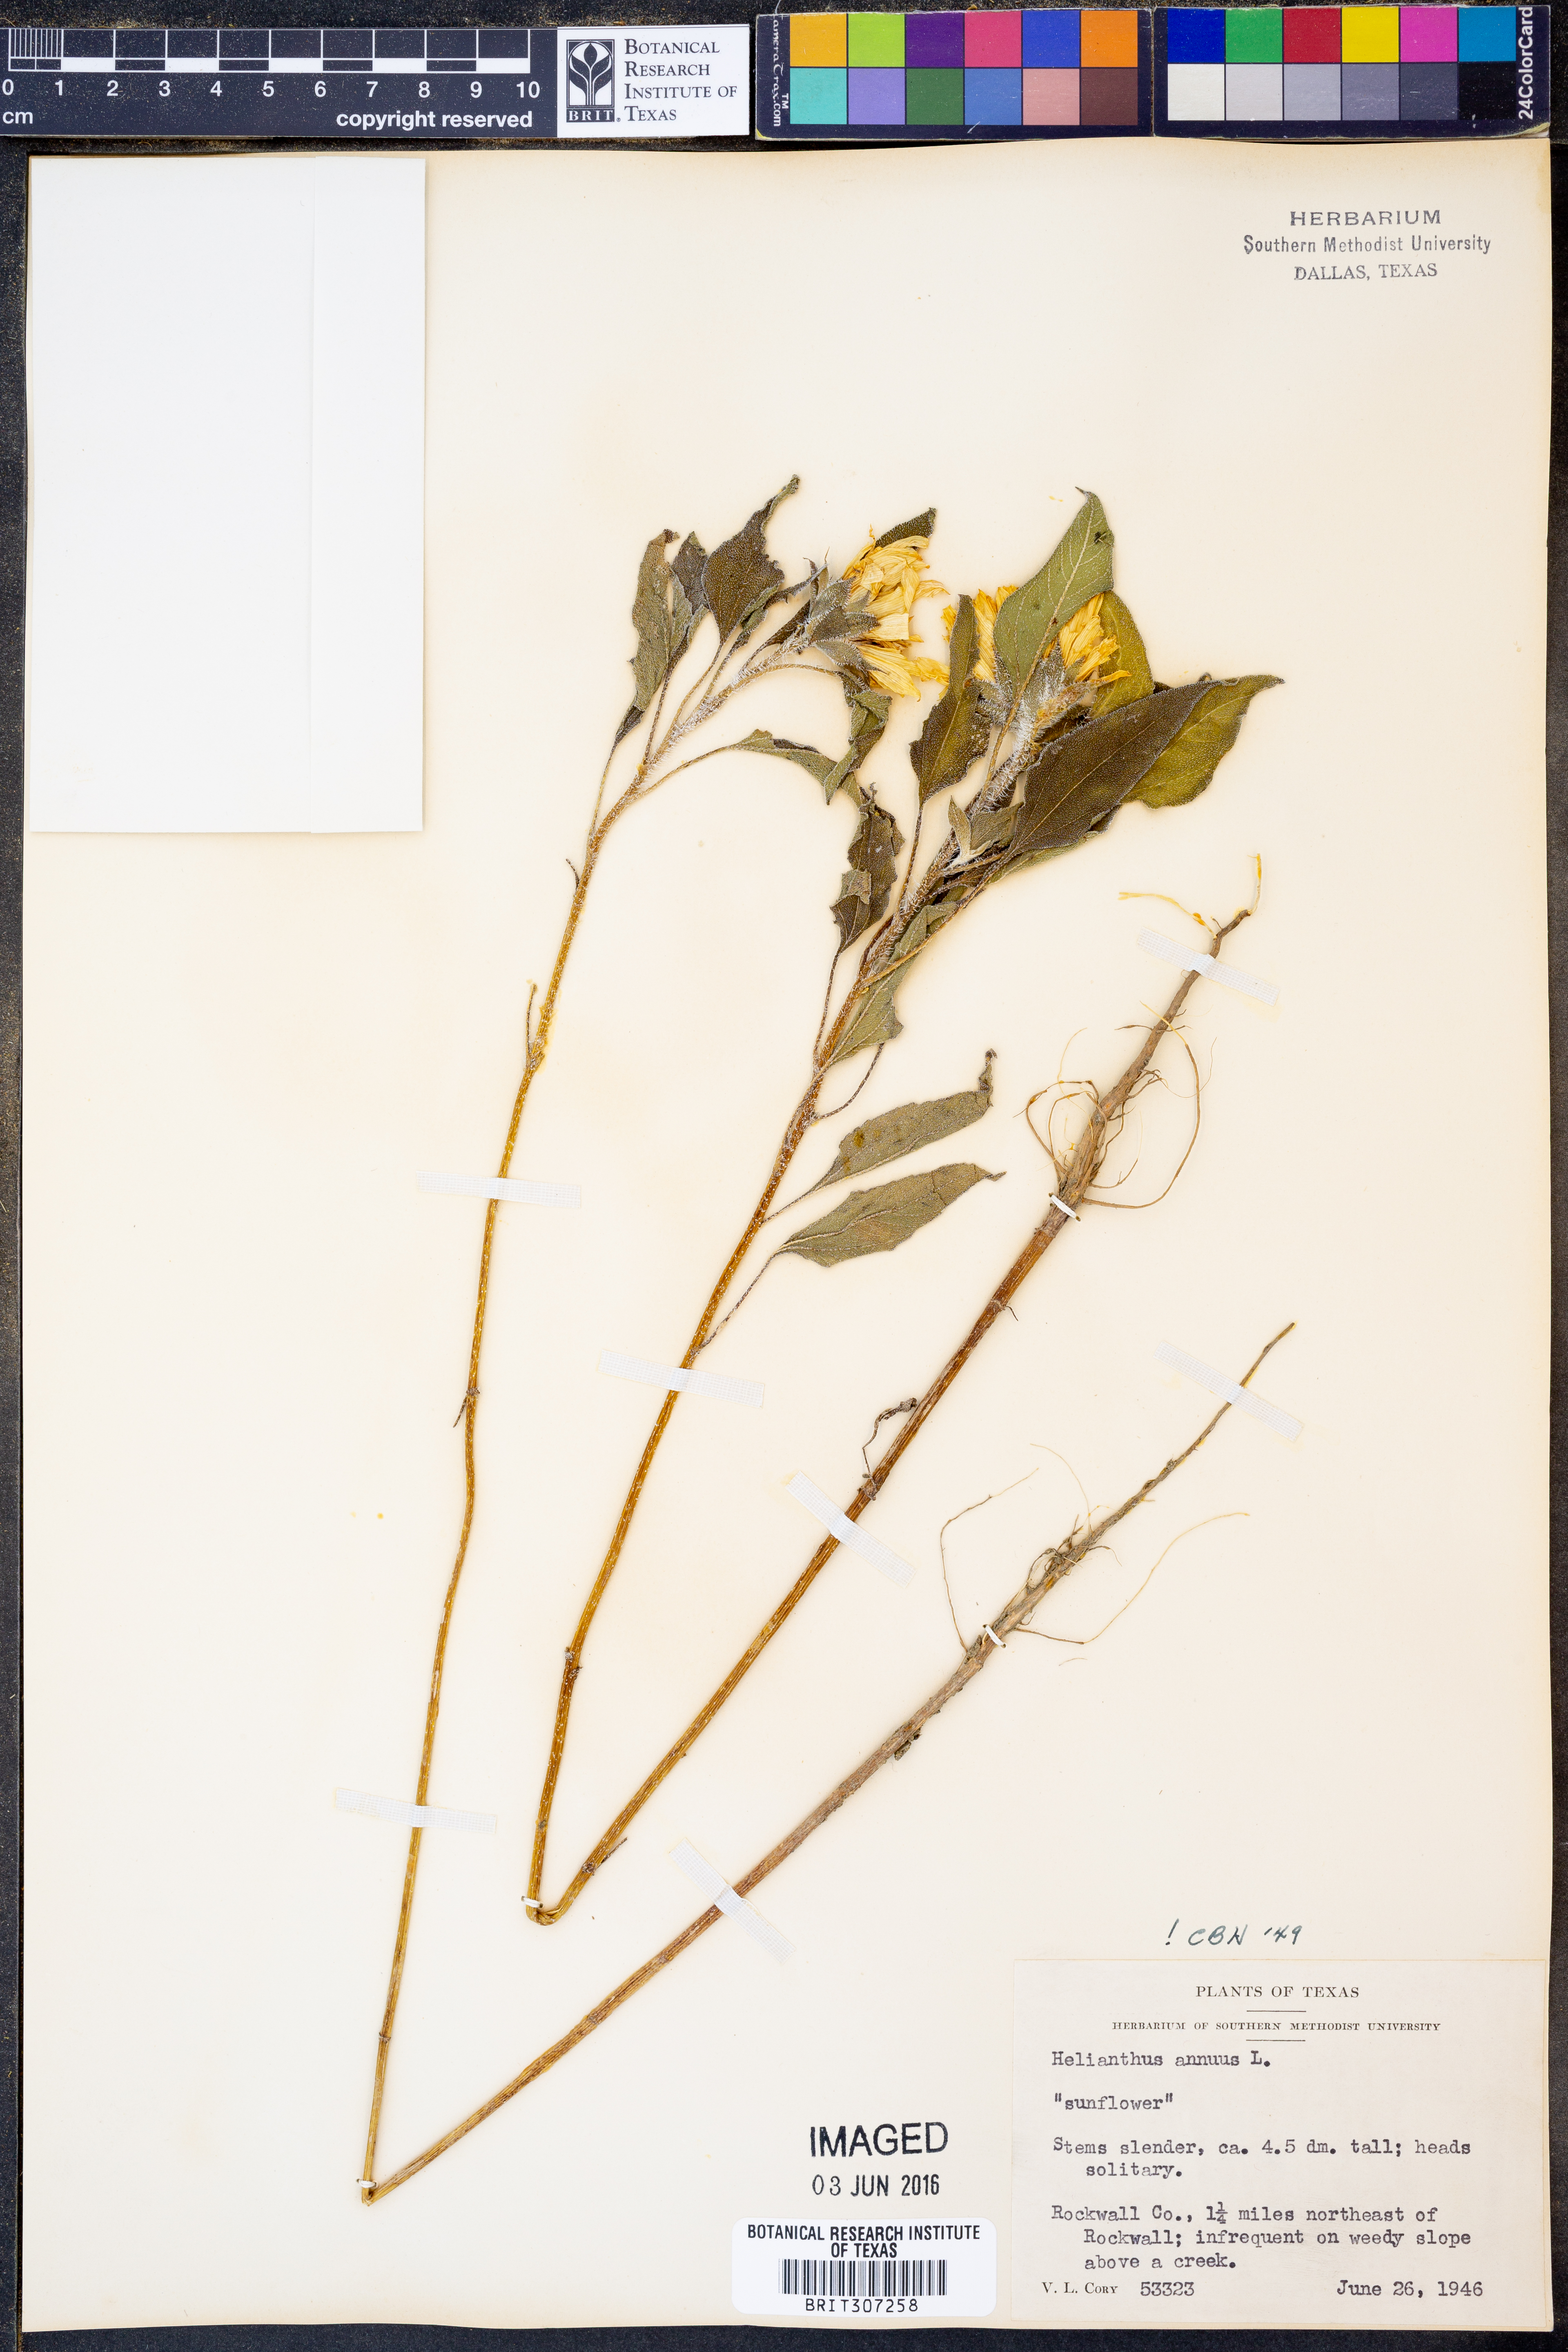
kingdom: Plantae
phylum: Tracheophyta
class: Magnoliopsida
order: Asterales
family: Asteraceae
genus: Helianthus
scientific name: Helianthus annuus
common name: Sunflower
